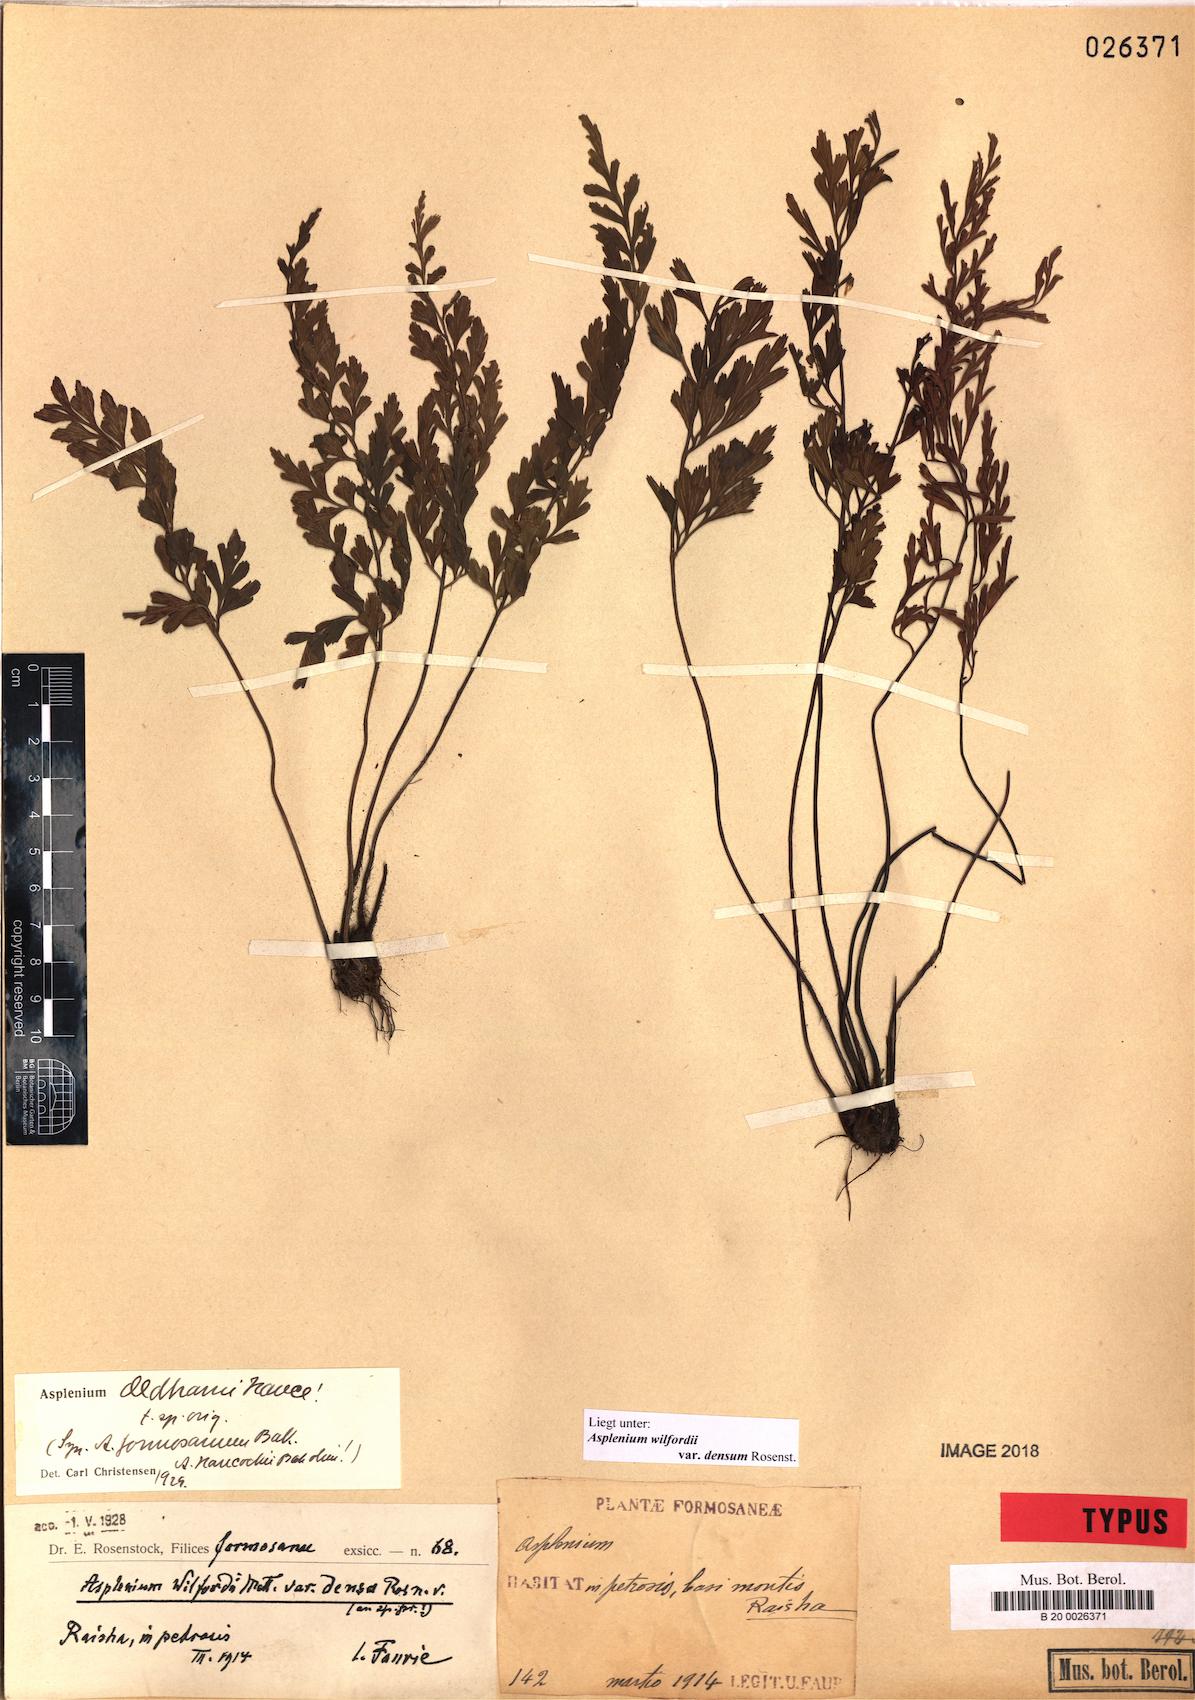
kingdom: Plantae
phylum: Tracheophyta
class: Polypodiopsida
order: Polypodiales
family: Aspleniaceae
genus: Asplenium
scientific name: Asplenium austrochinense
